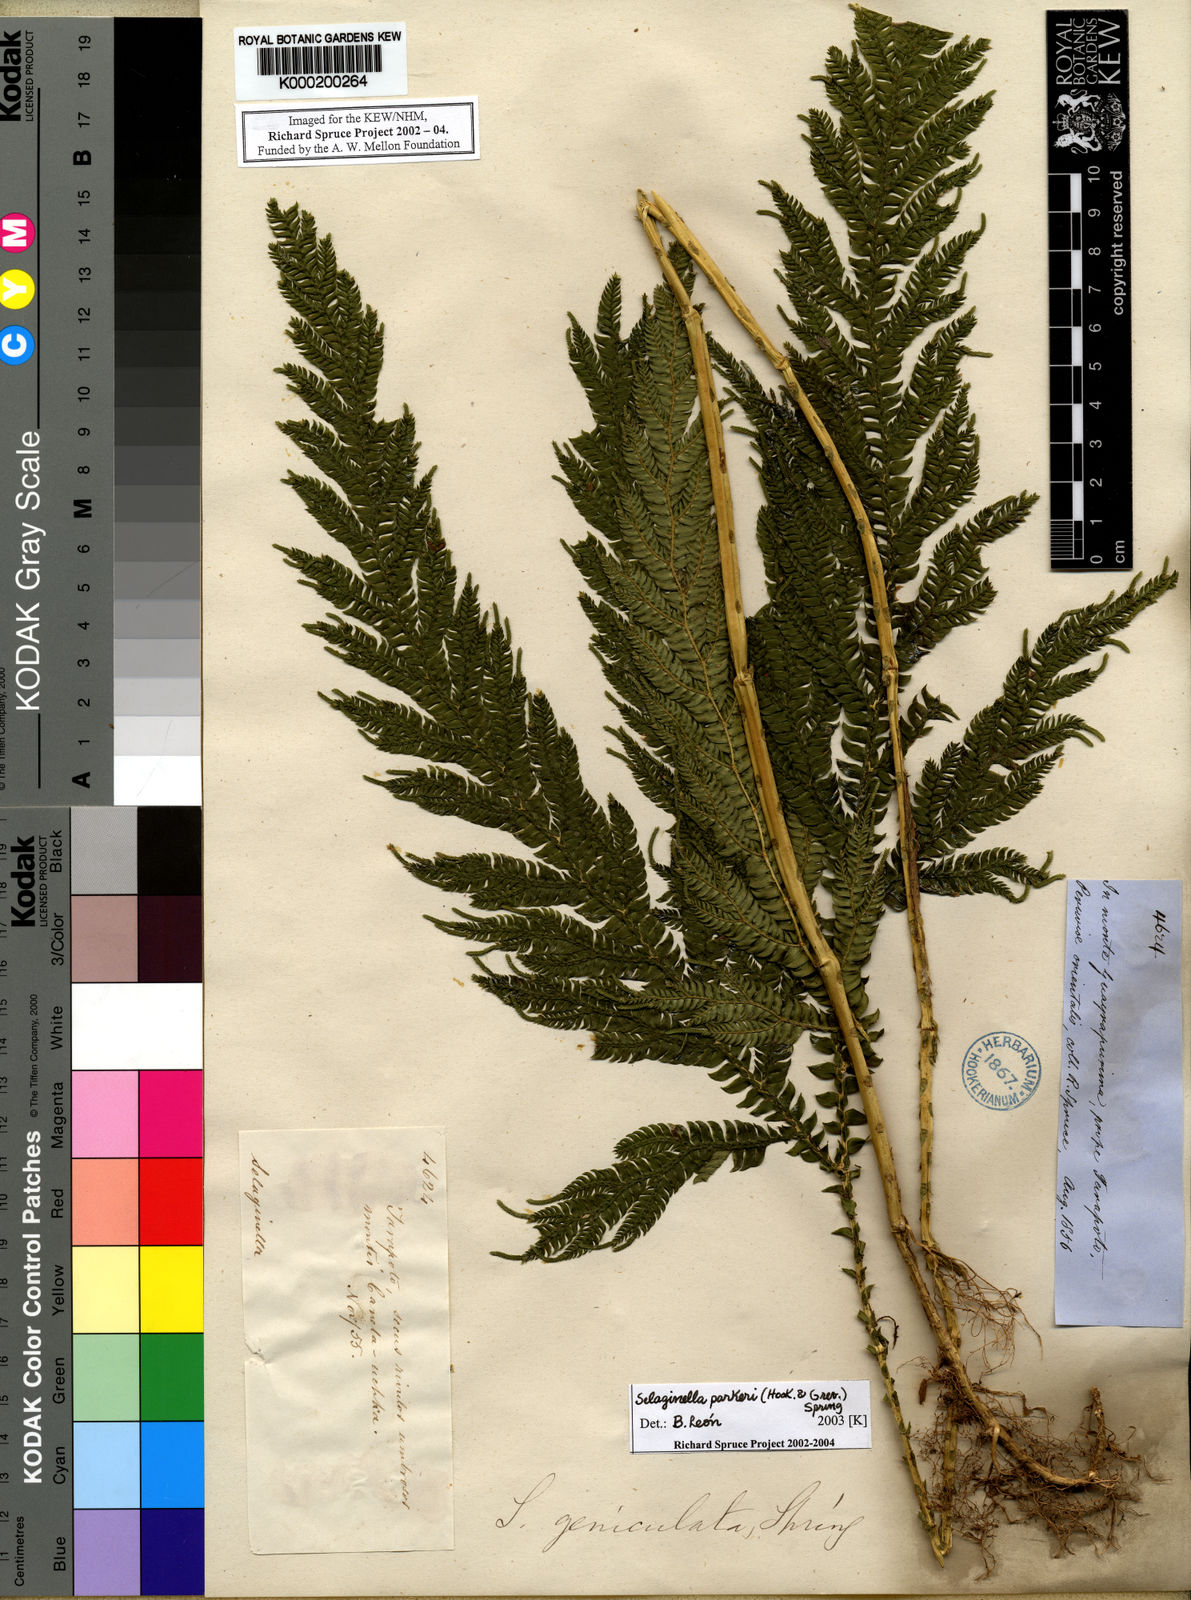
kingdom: Plantae
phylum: Tracheophyta
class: Lycopodiopsida
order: Selaginellales
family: Selaginellaceae
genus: Selaginella
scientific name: Selaginella parkeri
